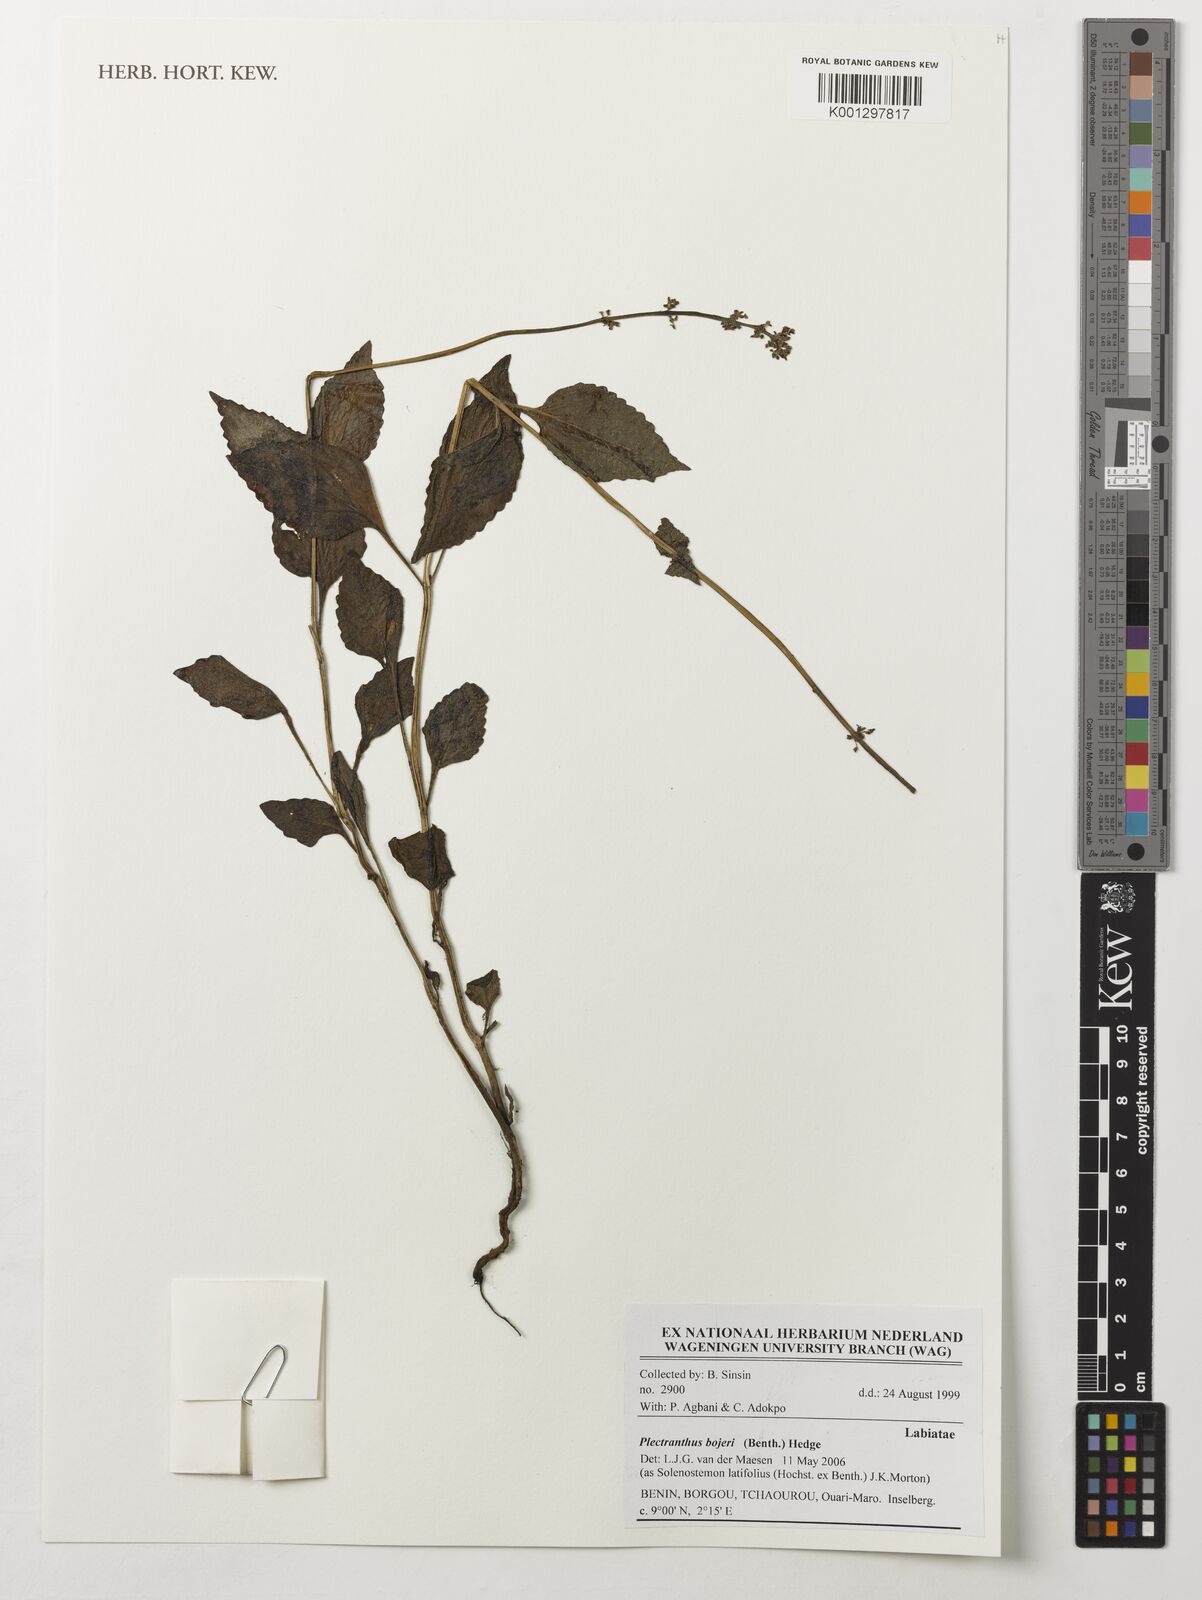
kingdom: Plantae
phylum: Tracheophyta
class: Magnoliopsida
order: Lamiales
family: Lamiaceae
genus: Coleus
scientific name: Coleus bojeri
